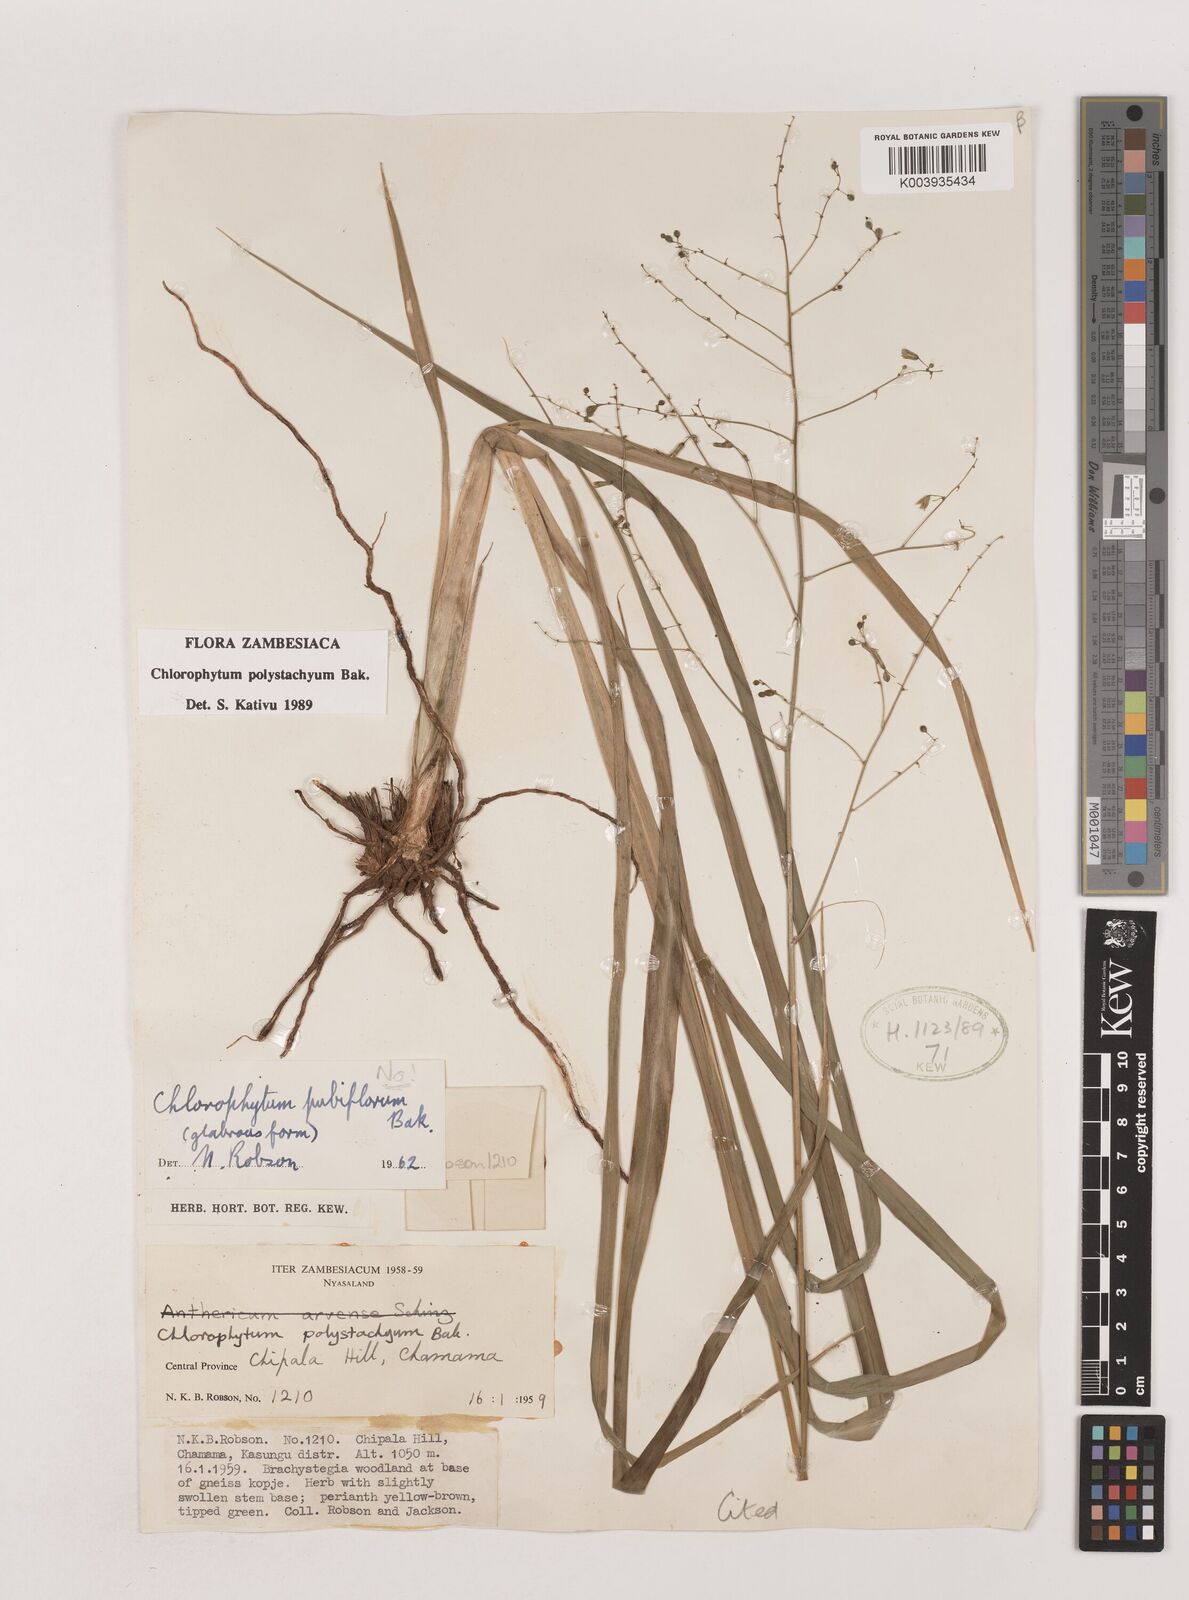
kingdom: Plantae
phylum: Tracheophyta
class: Liliopsida
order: Asparagales
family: Asparagaceae
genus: Chlorophytum
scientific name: Chlorophytum polystachys
